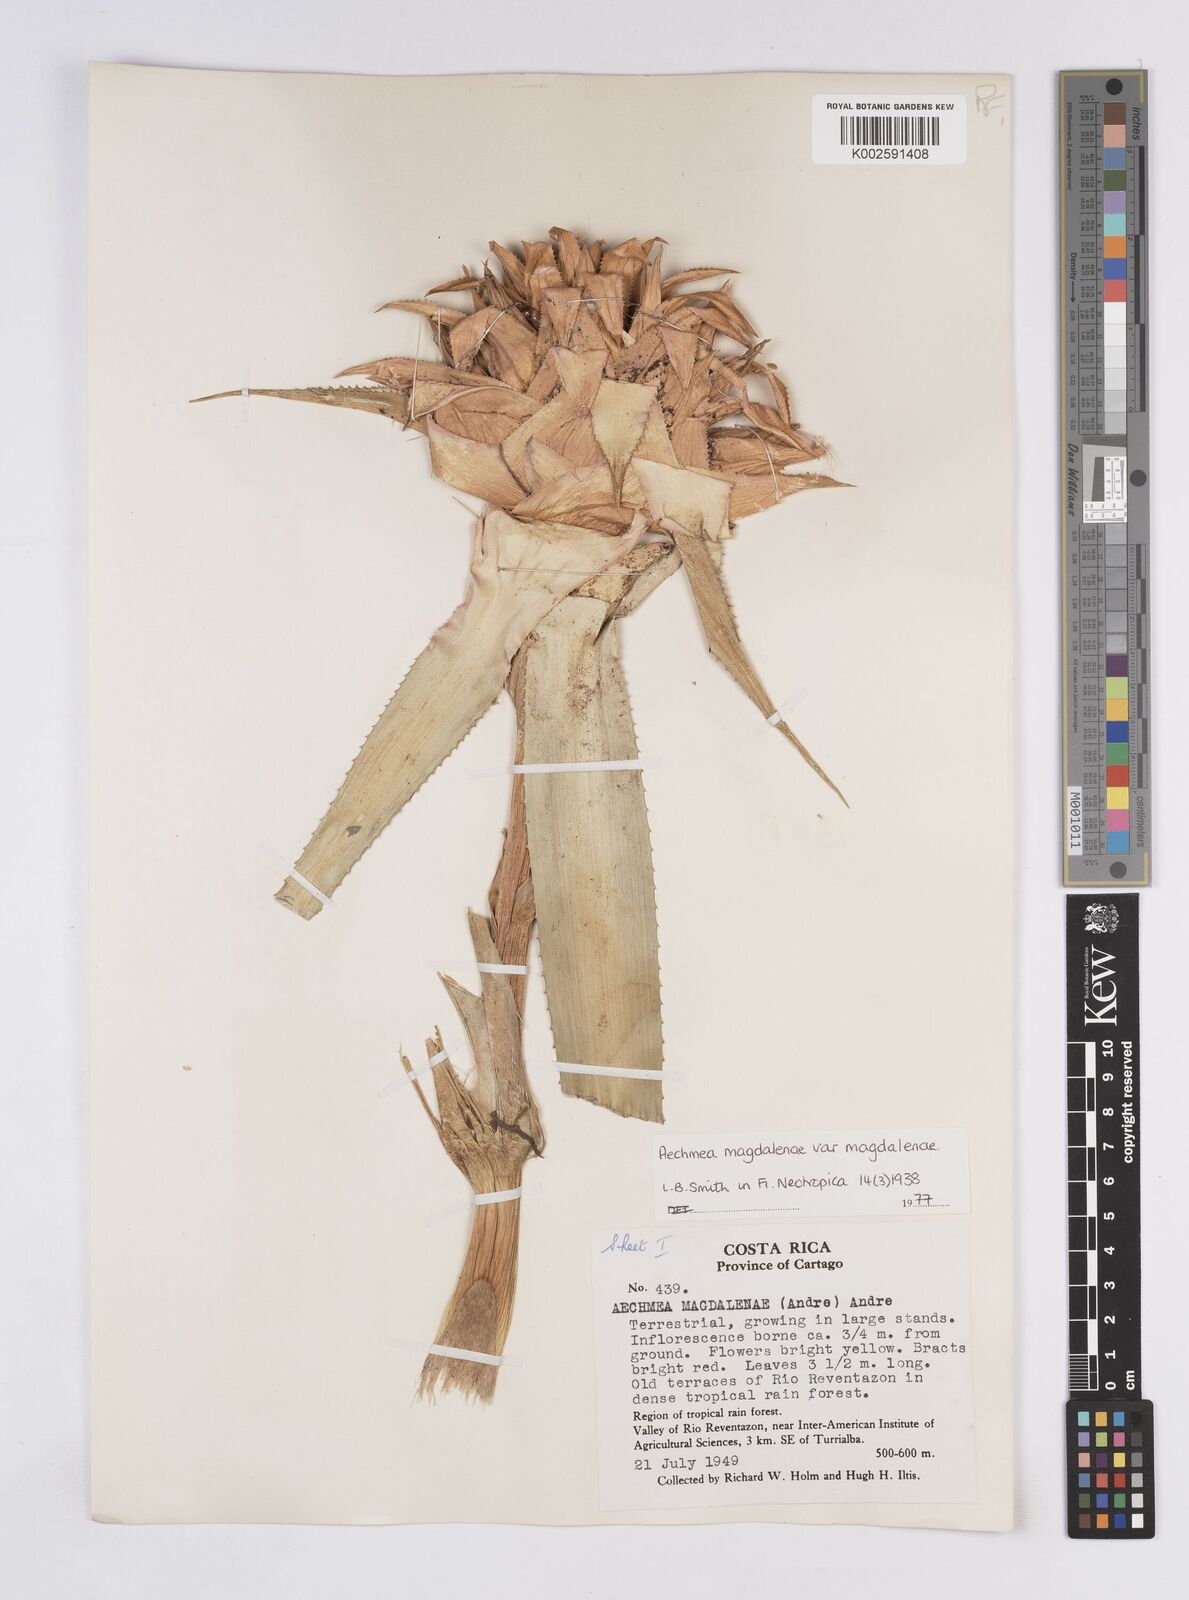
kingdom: Plantae
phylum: Tracheophyta
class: Liliopsida
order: Poales
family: Bromeliaceae
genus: Aechmea
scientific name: Aechmea magdalenae
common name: Arghan
